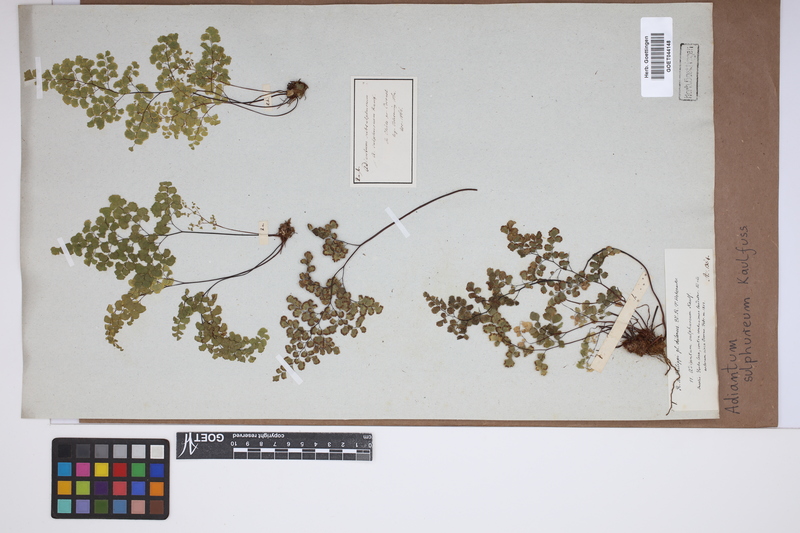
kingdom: Plantae
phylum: Tracheophyta
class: Polypodiopsida
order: Polypodiales
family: Pteridaceae
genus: Adiantum
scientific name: Adiantum sulphureum
